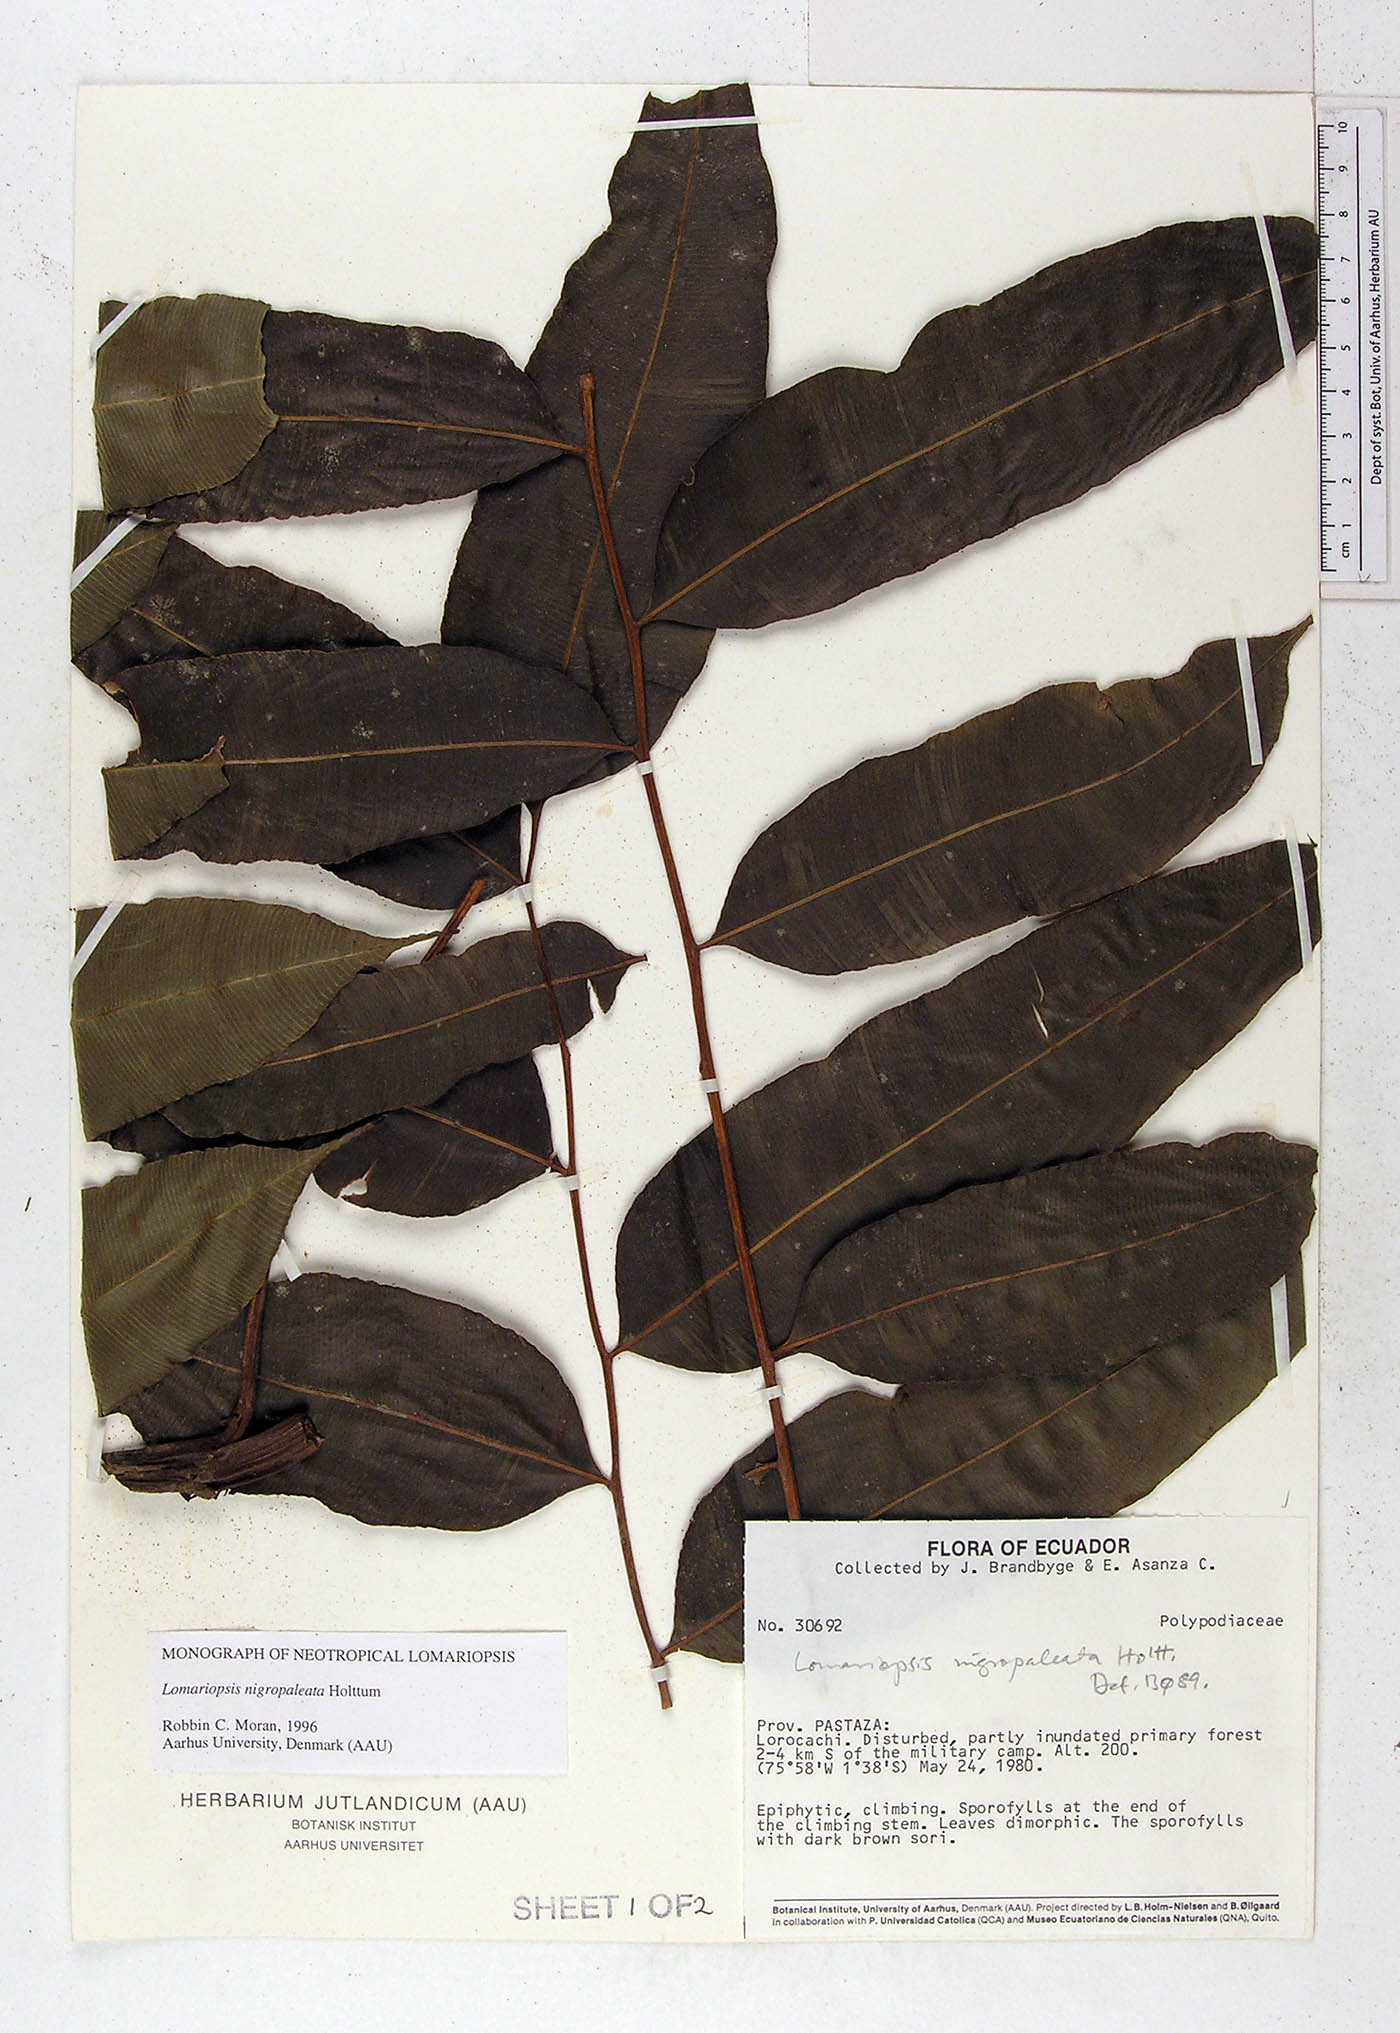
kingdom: Plantae
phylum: Tracheophyta
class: Polypodiopsida
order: Polypodiales
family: Lomariopsidaceae
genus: Lomariopsis
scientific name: Lomariopsis nigropaleata
